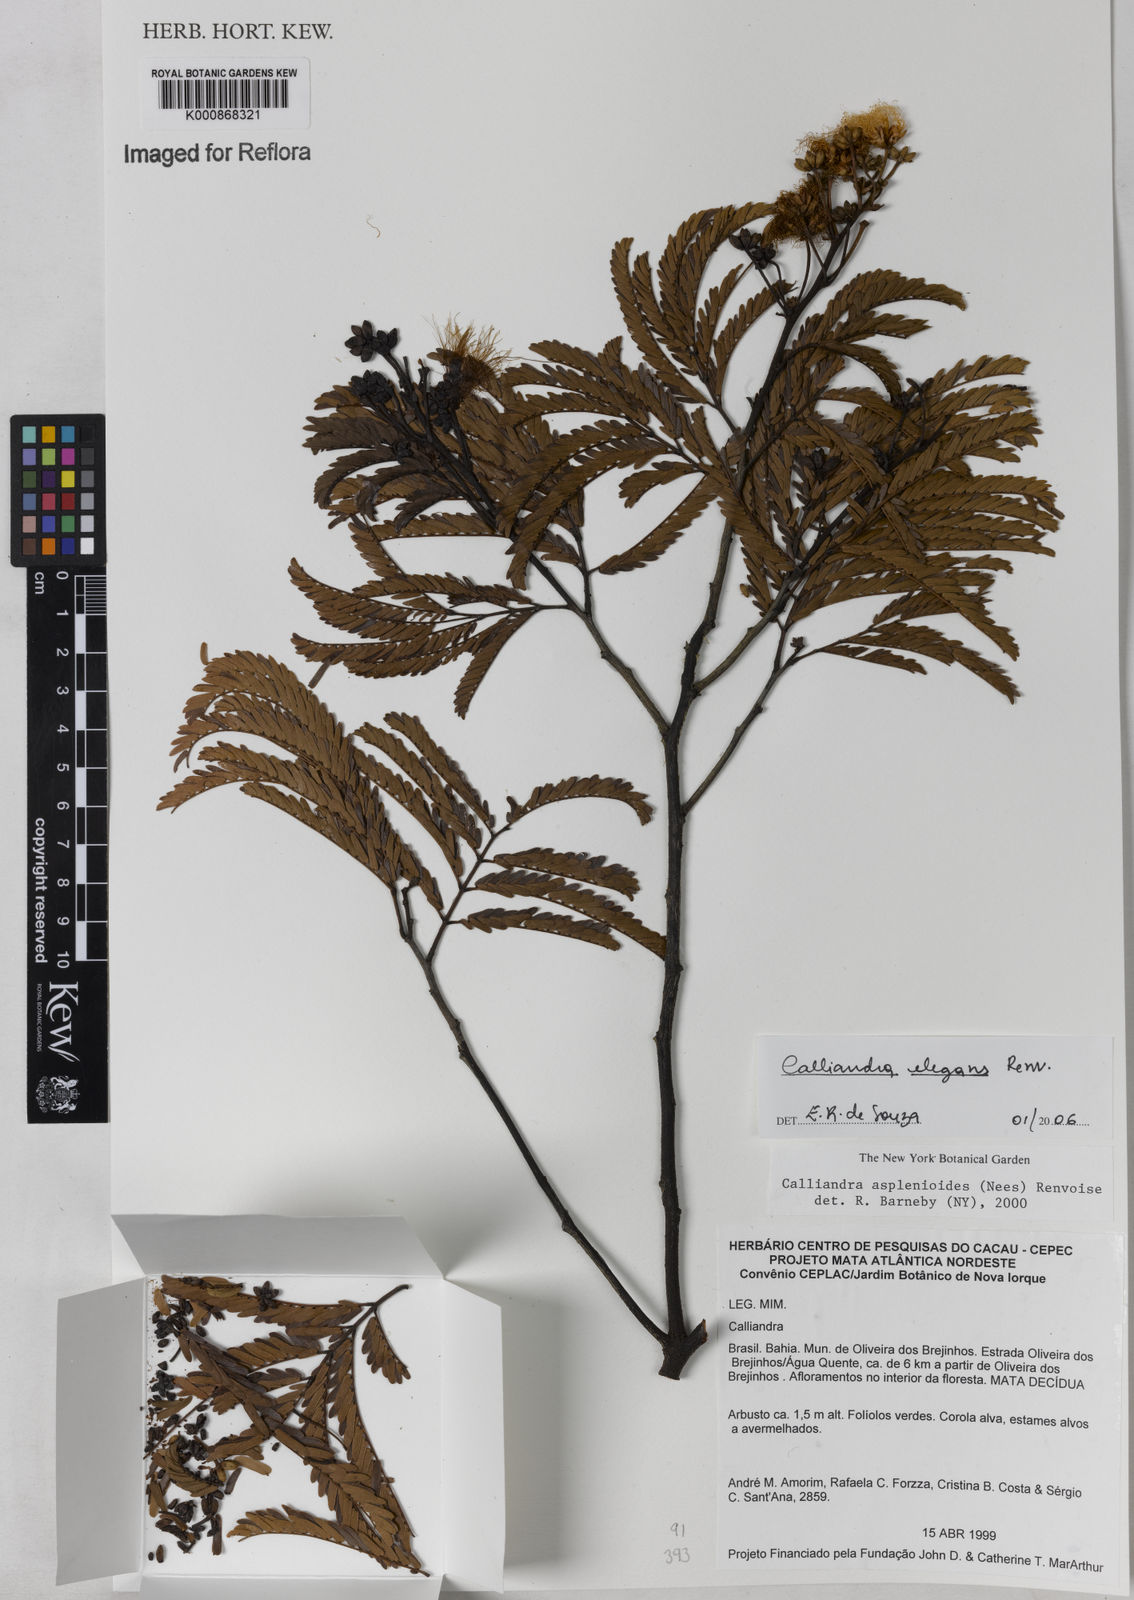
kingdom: Plantae
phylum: Tracheophyta
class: Magnoliopsida
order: Fabales
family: Fabaceae
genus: Calliandra
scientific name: Calliandra elegans
